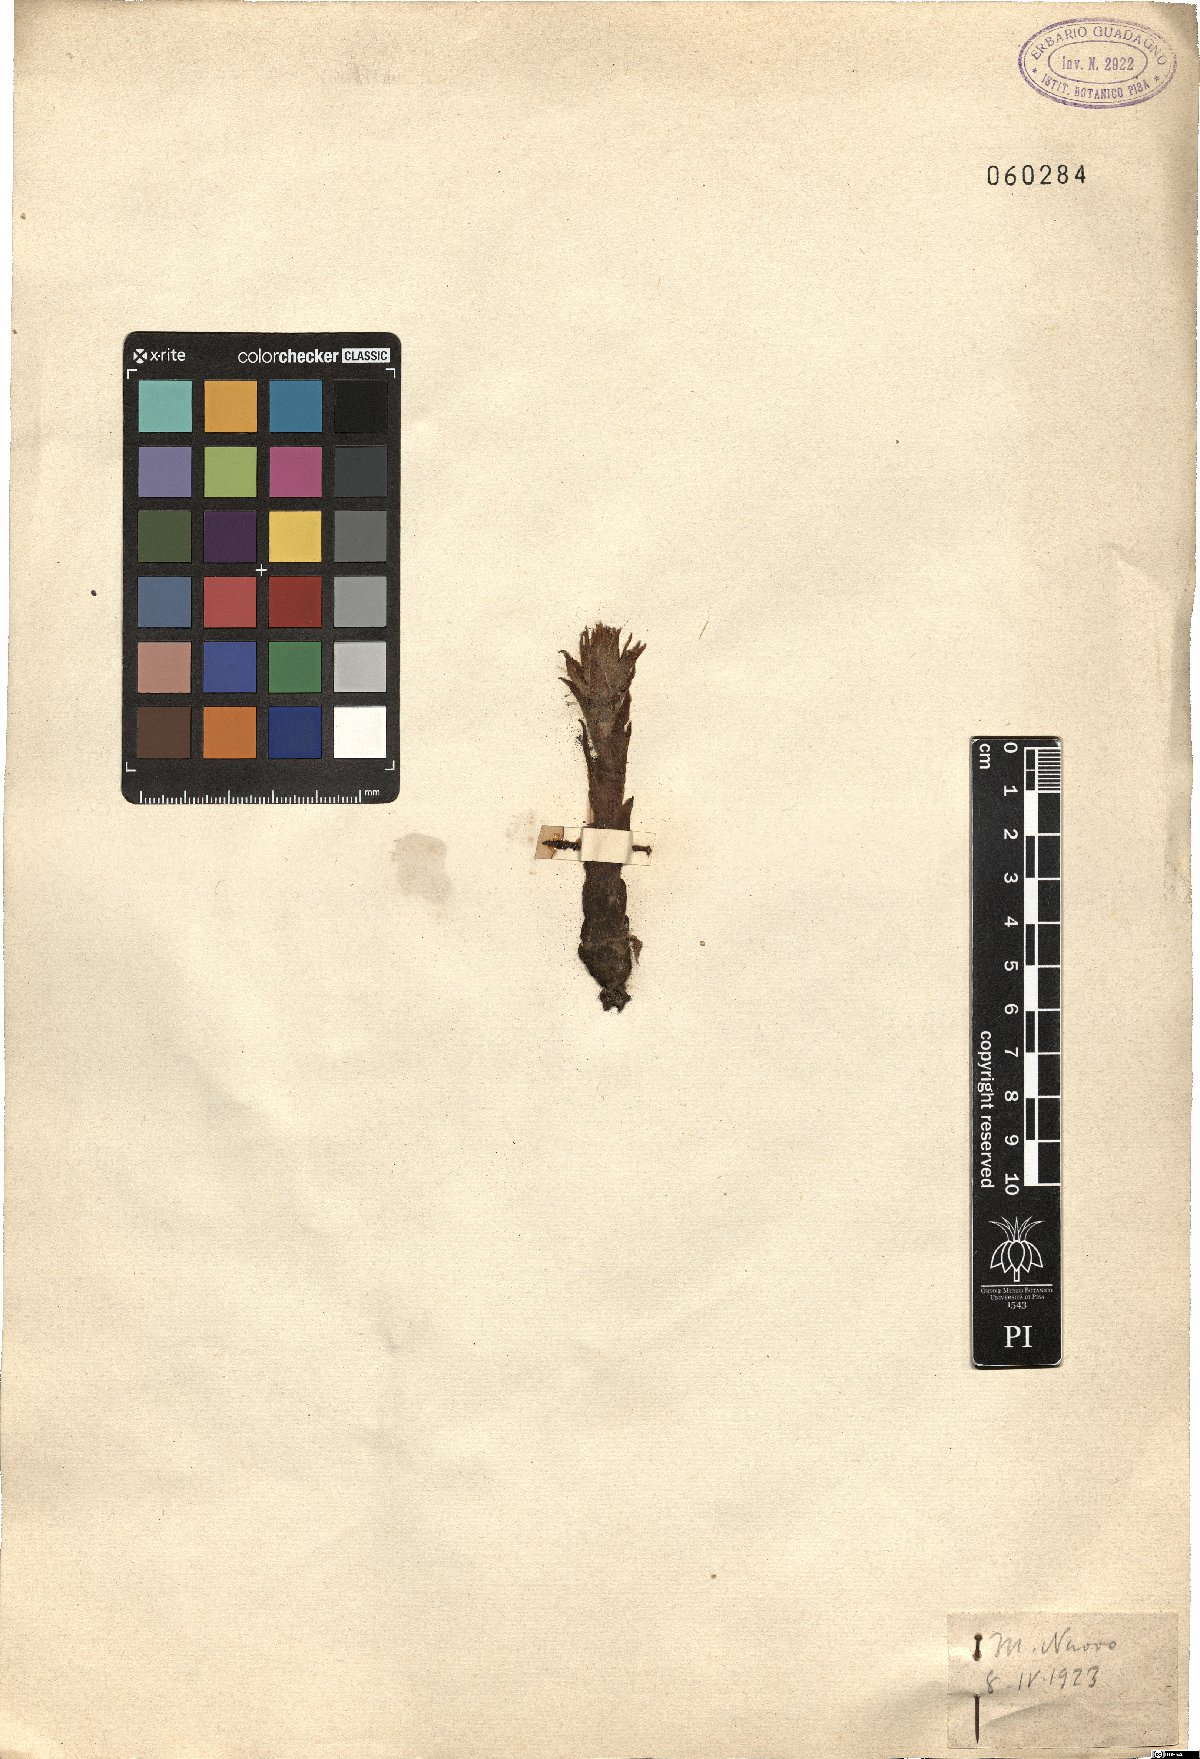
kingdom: Plantae
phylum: Tracheophyta
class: Magnoliopsida
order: Saxifragales
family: Crassulaceae
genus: Sempervivum
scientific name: Sempervivum tectorum
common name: House-leek
